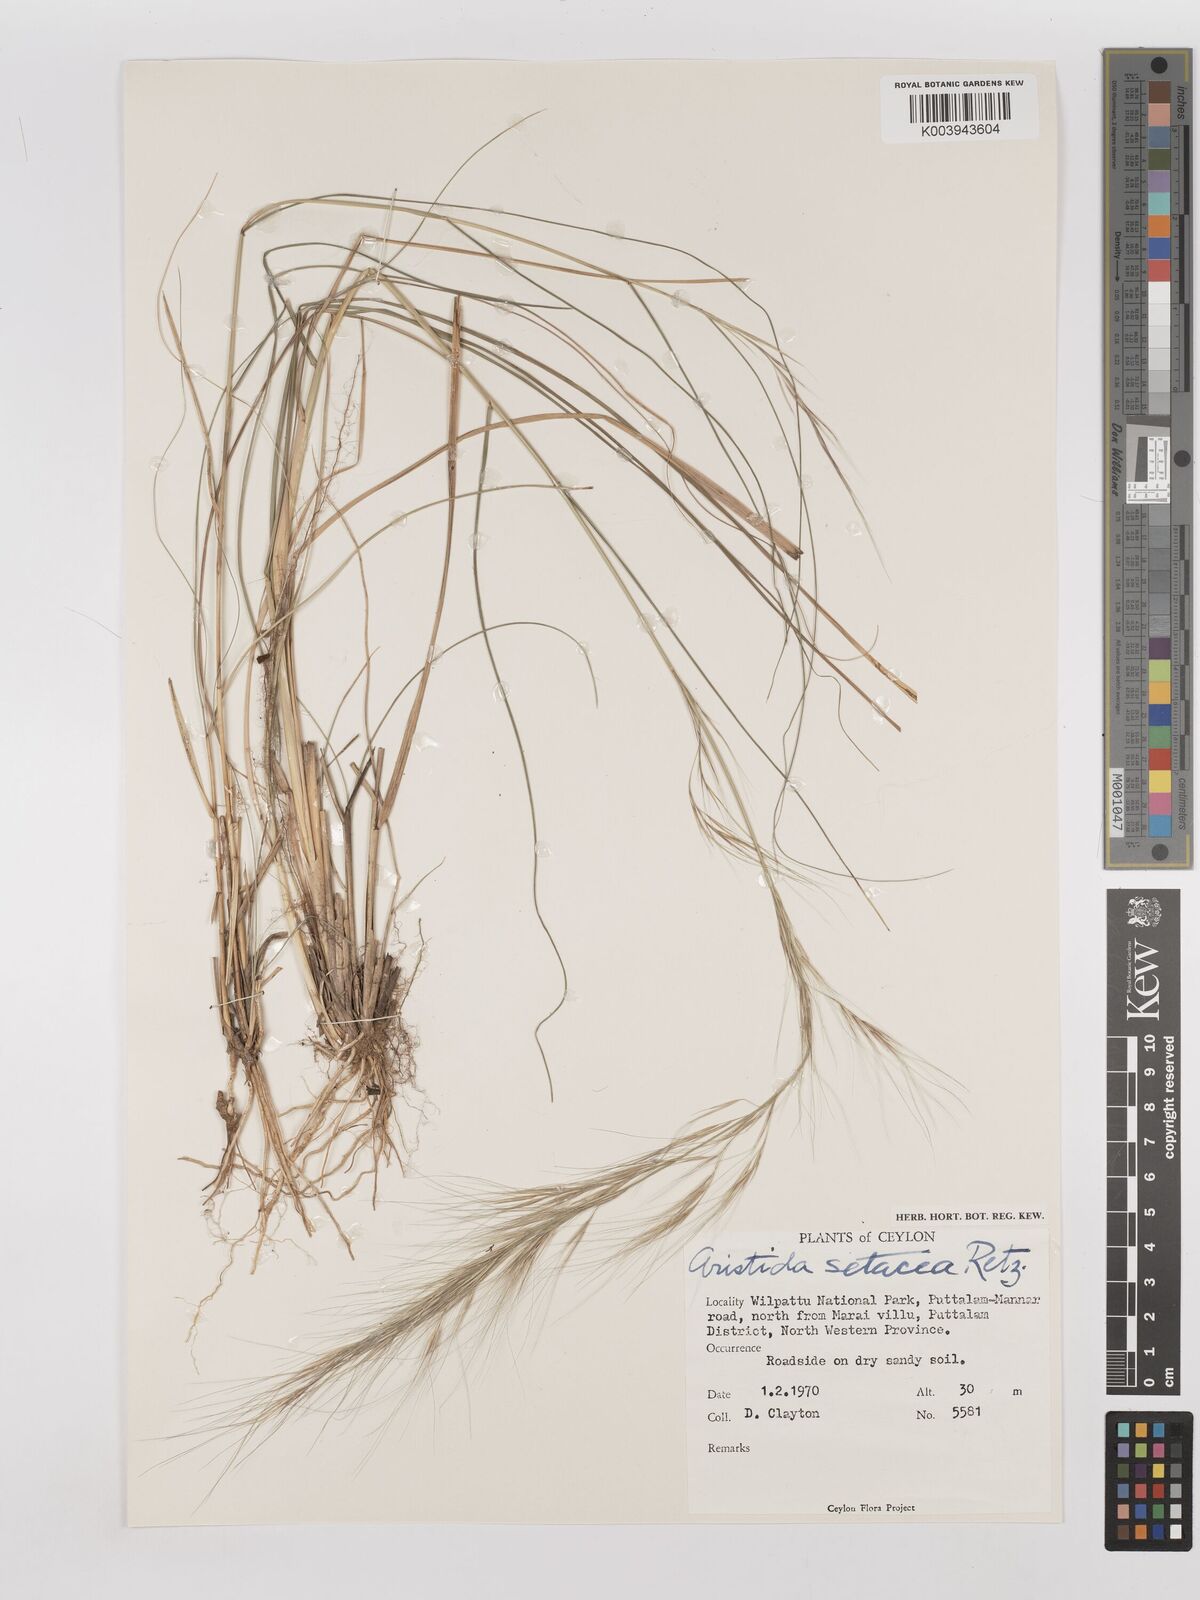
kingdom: Plantae
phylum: Tracheophyta
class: Liliopsida
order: Poales
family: Poaceae
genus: Aristida
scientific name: Aristida setacea
